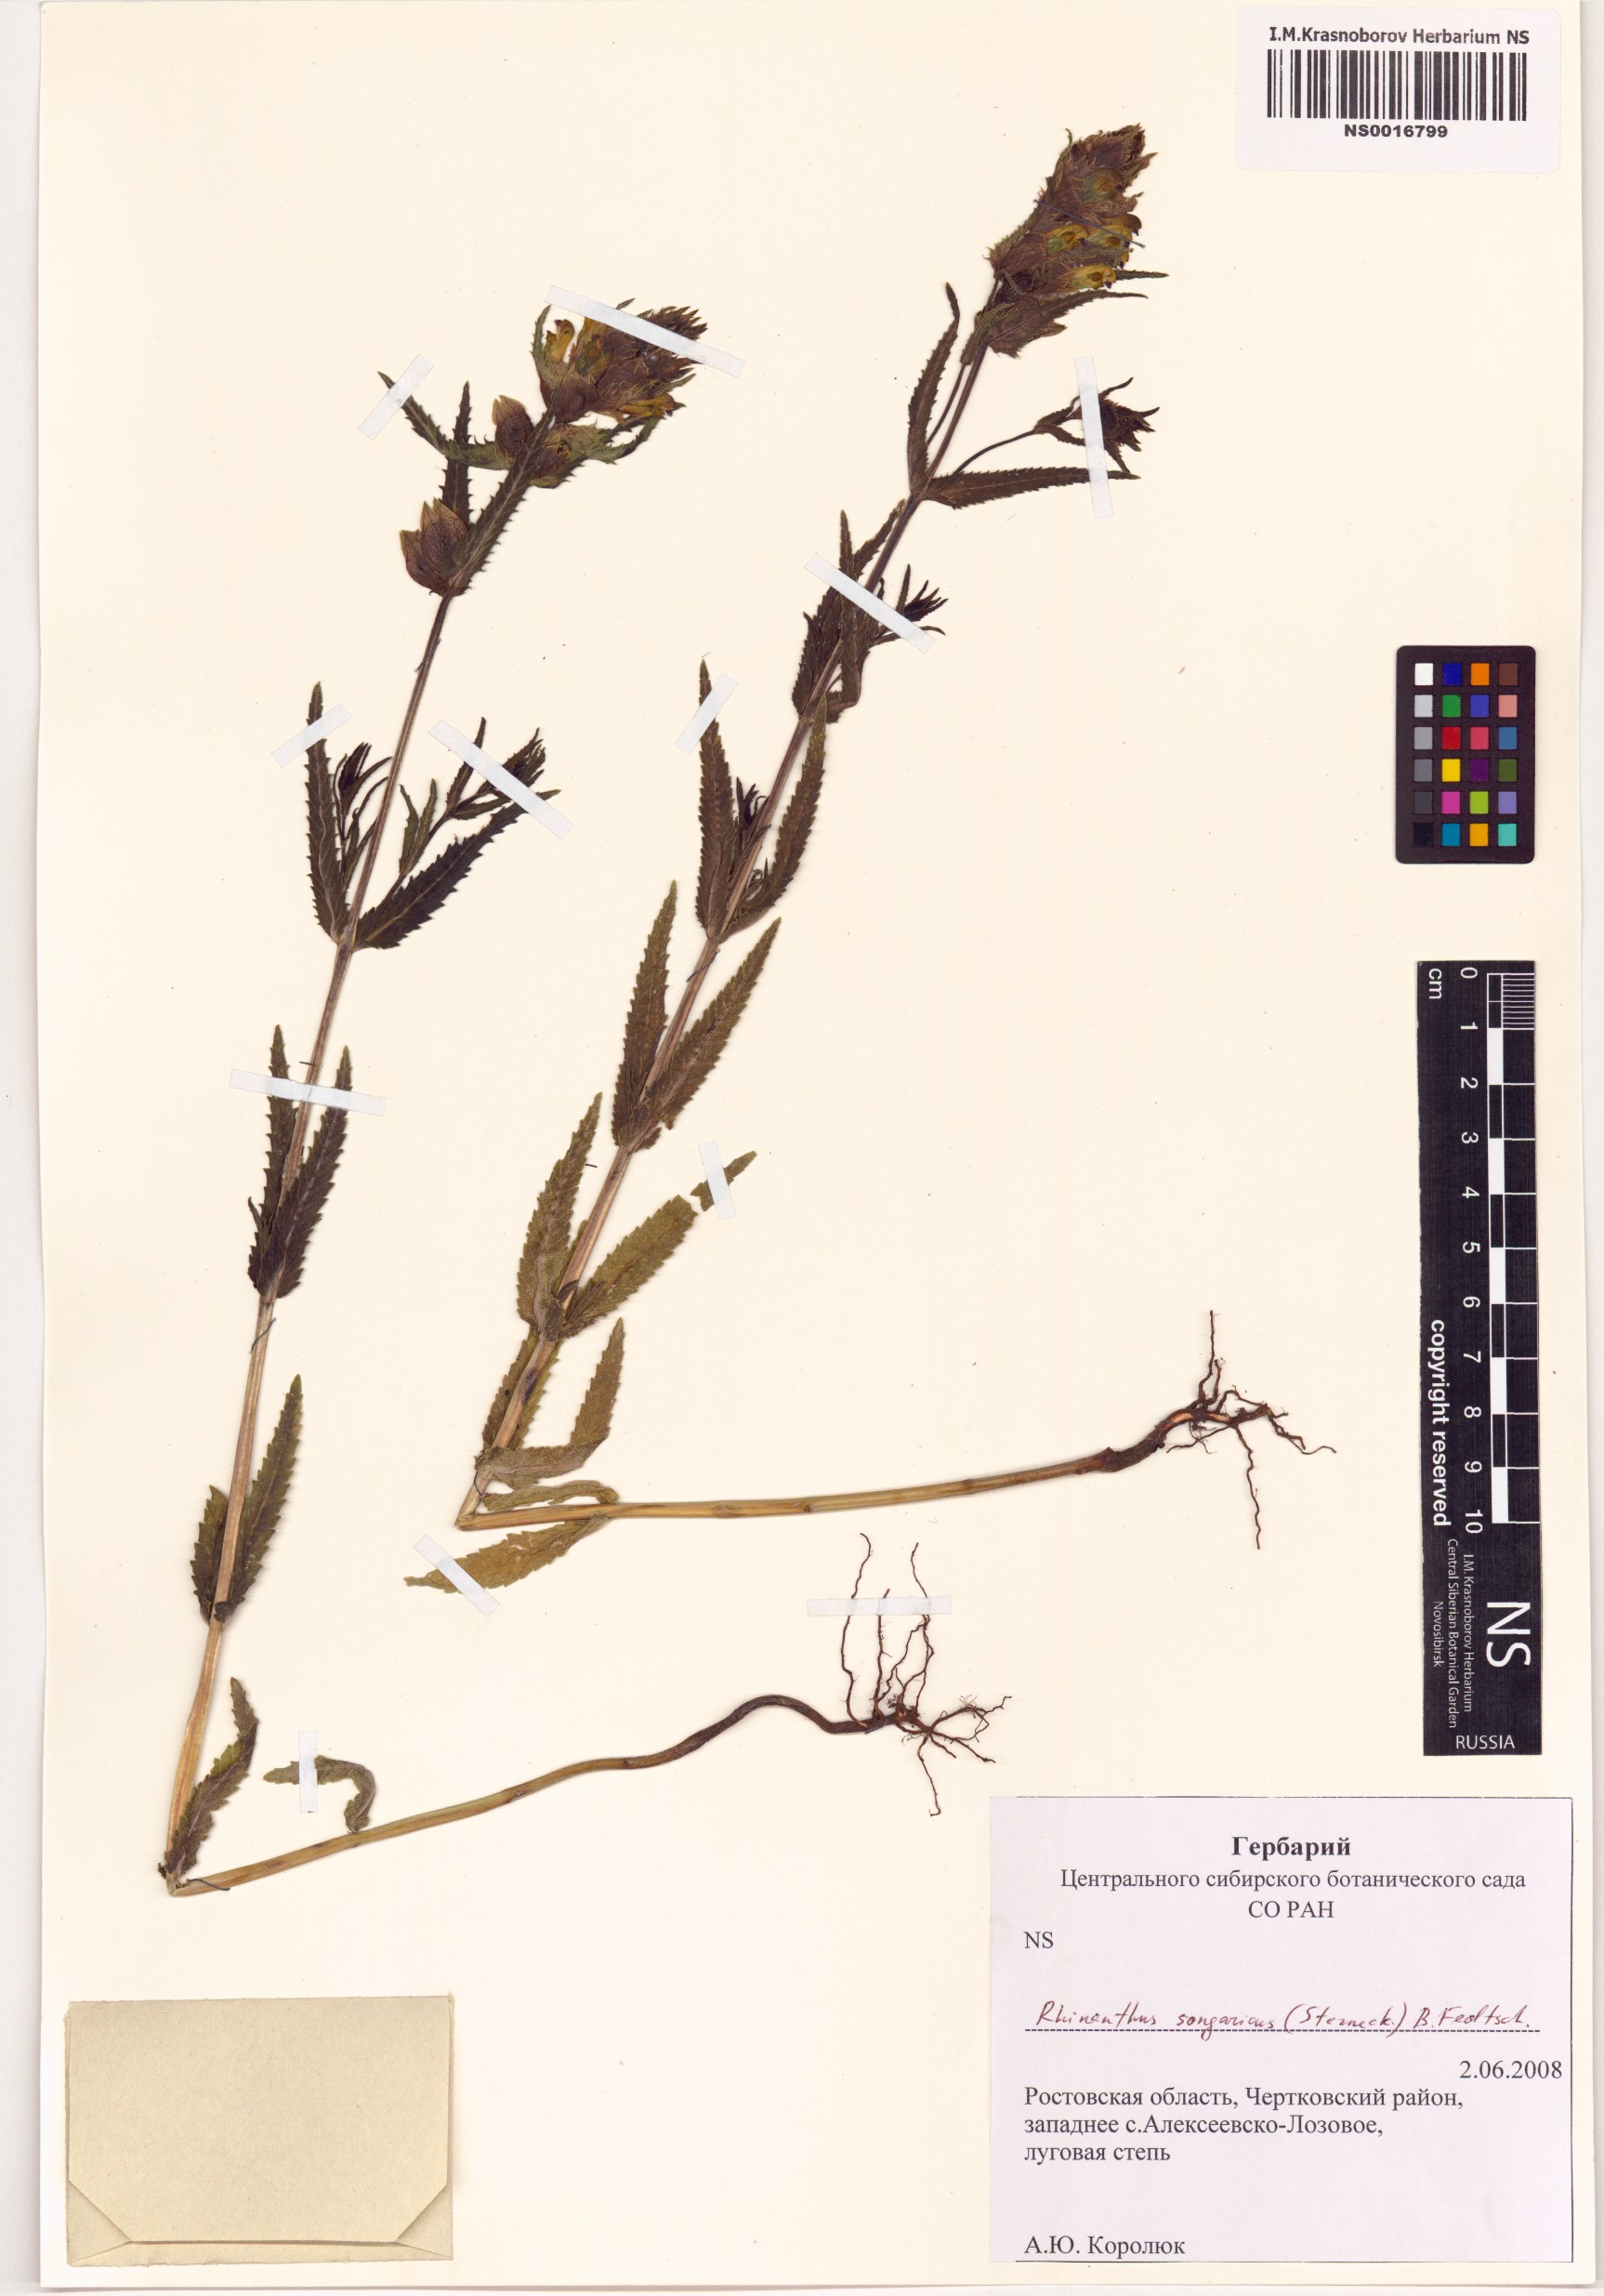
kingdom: Plantae
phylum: Tracheophyta
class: Magnoliopsida
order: Lamiales
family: Orobanchaceae
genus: Rhinanthus
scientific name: Rhinanthus songaricus
